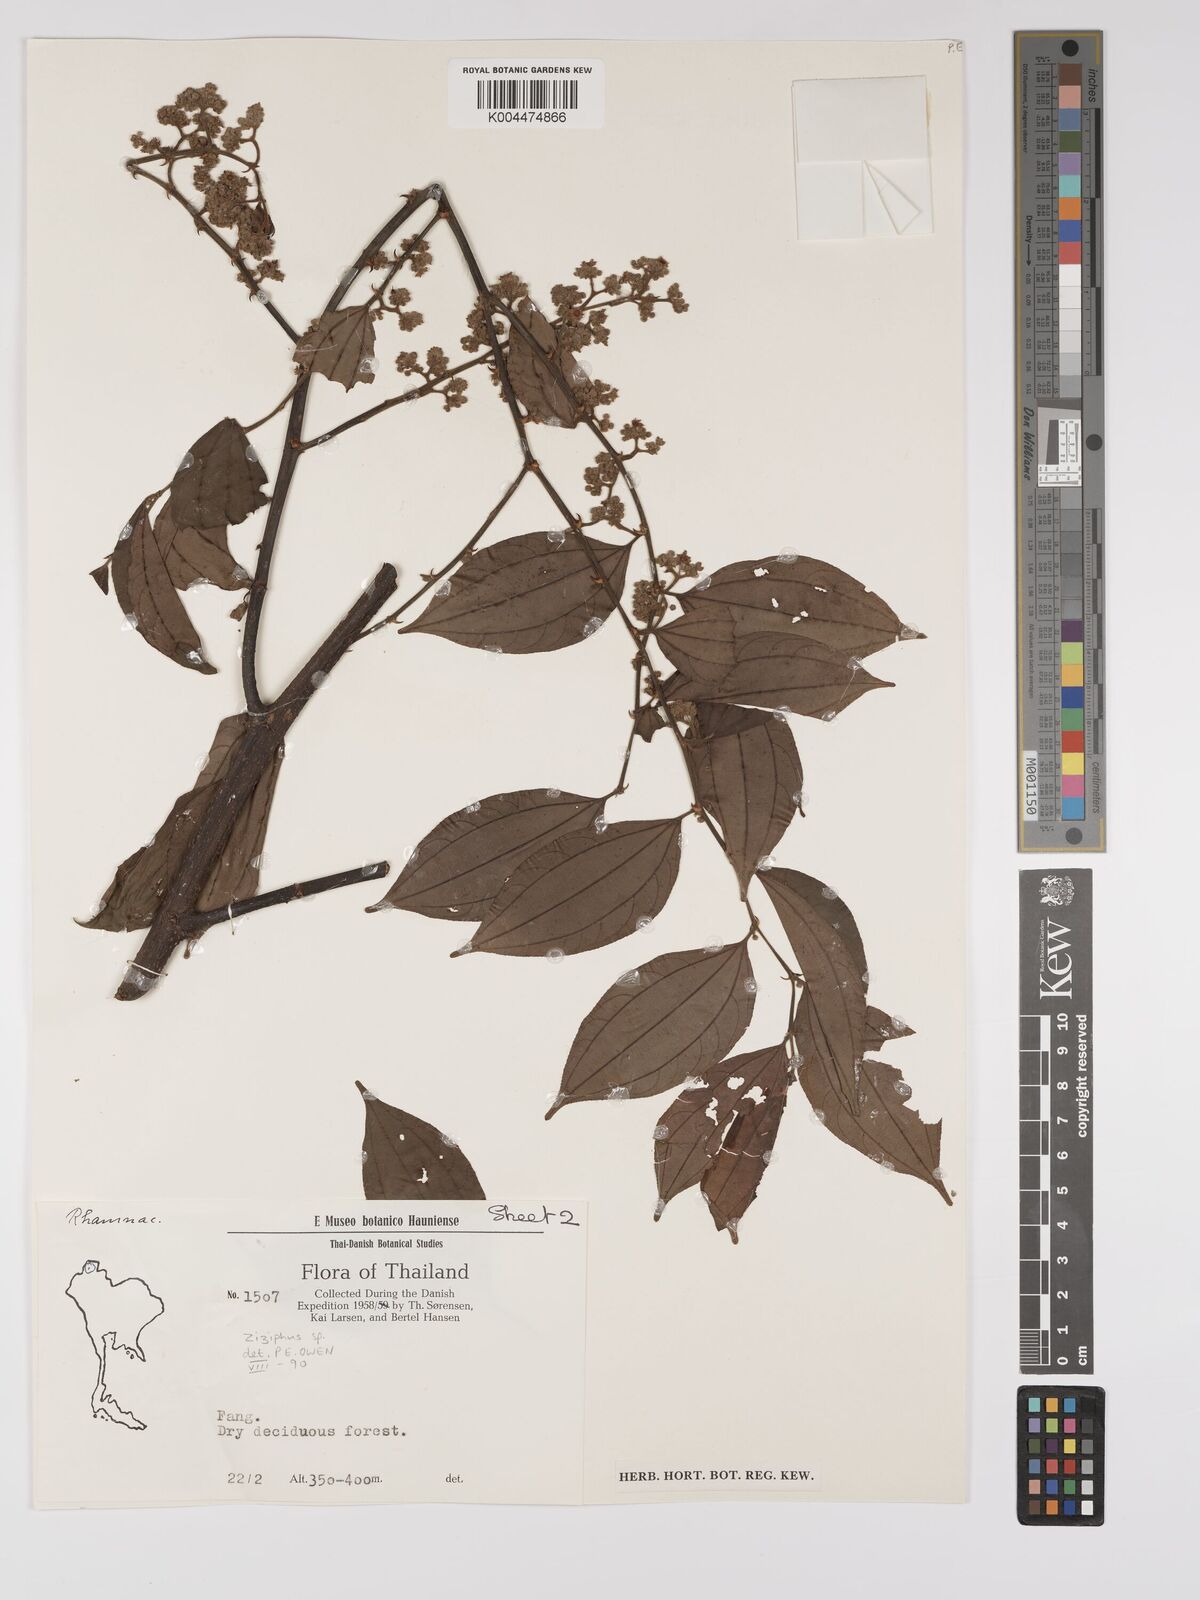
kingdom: Plantae
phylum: Tracheophyta
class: Magnoliopsida
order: Rosales
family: Rhamnaceae
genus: Ziziphus
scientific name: Ziziphus
